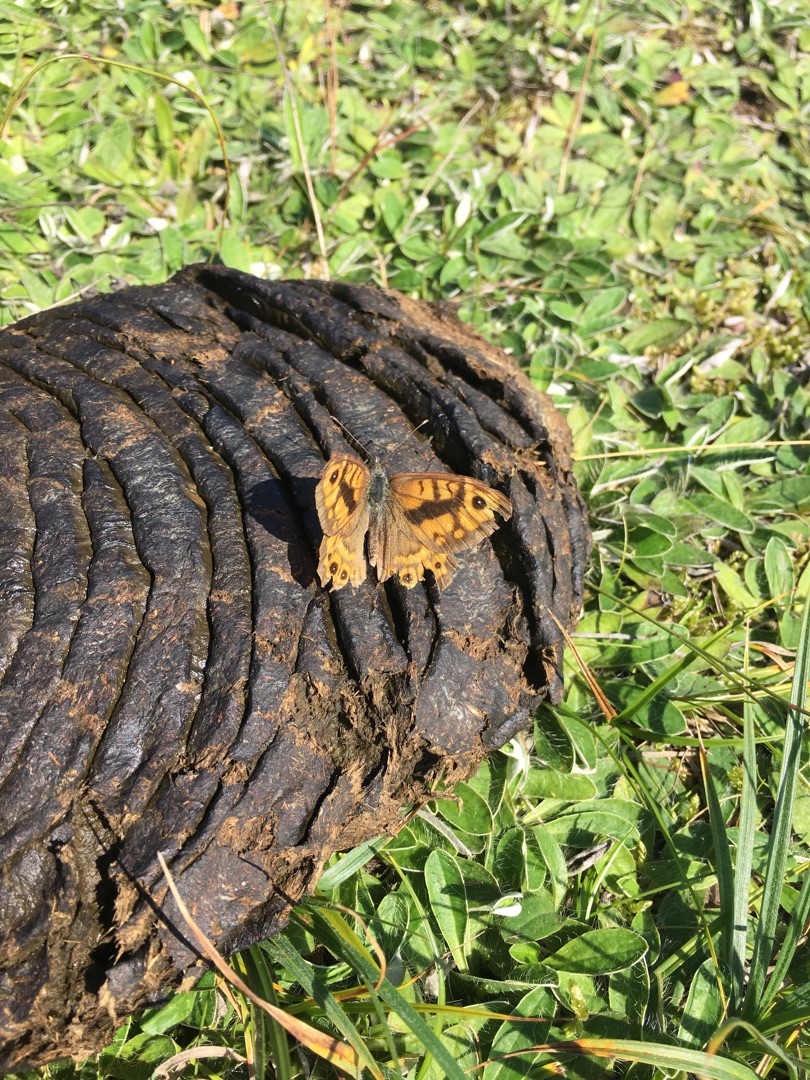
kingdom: Animalia
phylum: Arthropoda
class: Insecta
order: Lepidoptera
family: Nymphalidae
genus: Pararge
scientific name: Pararge Lasiommata megera
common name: Vejrandøje
